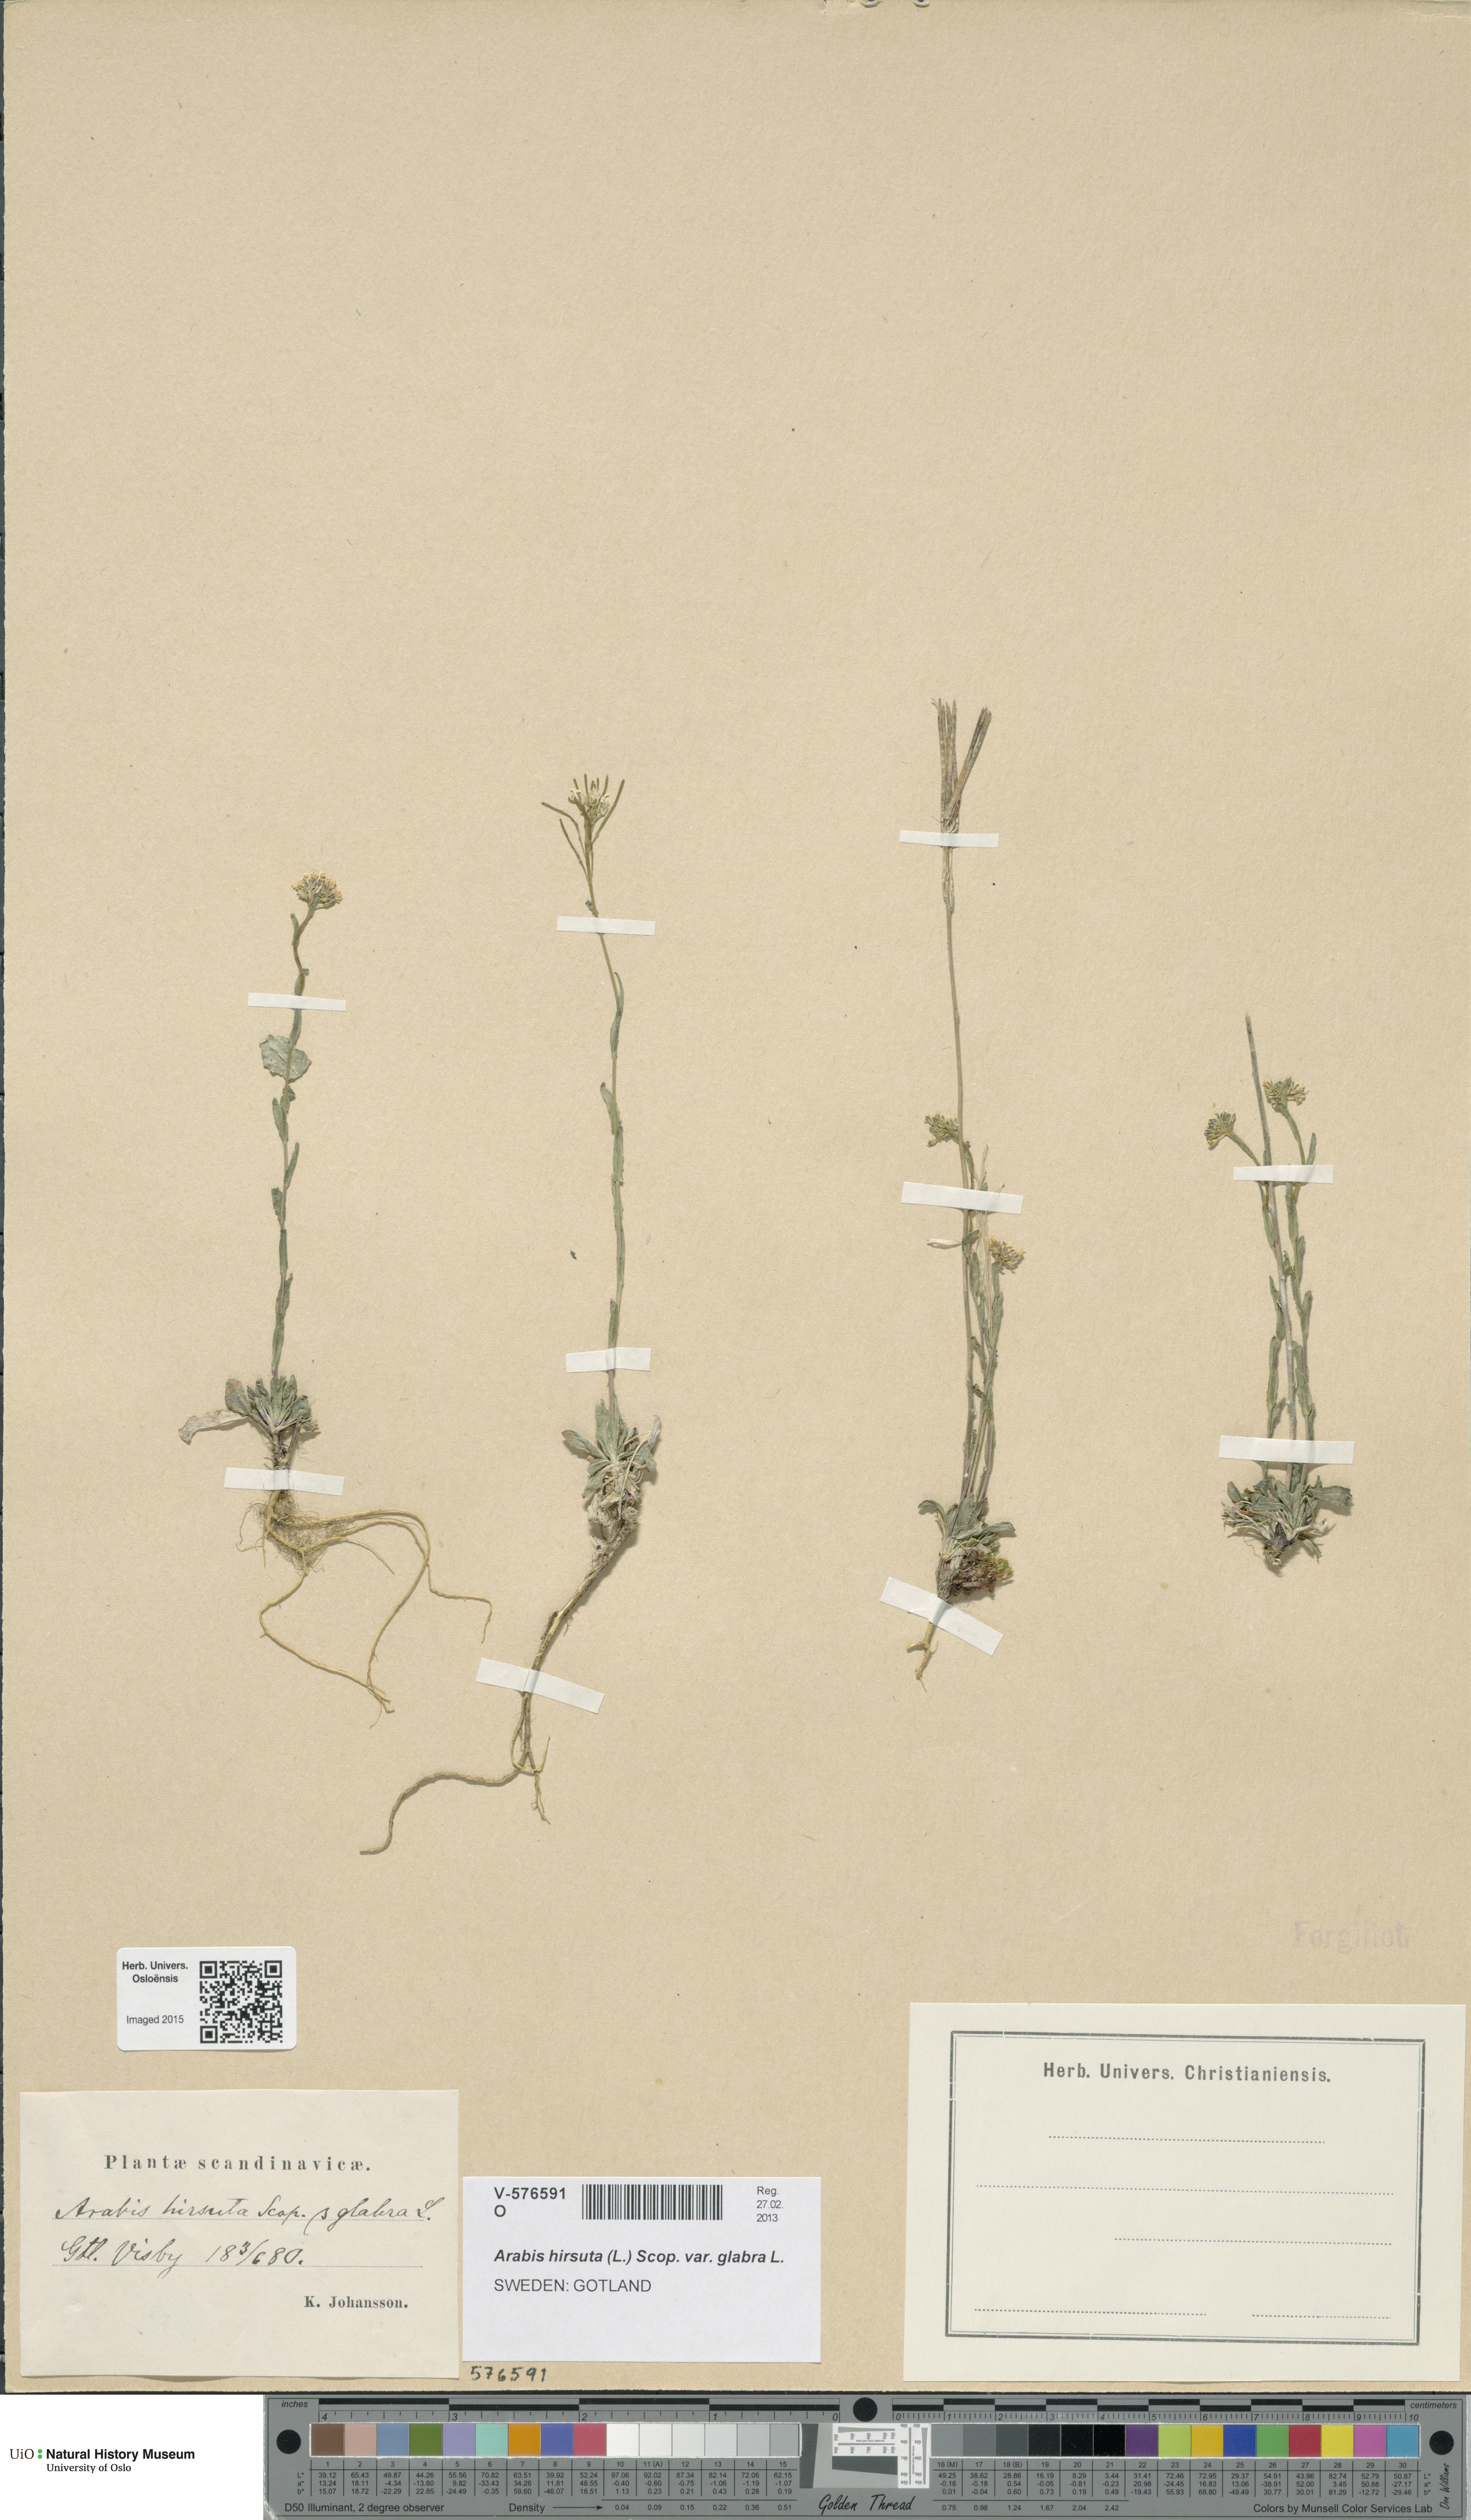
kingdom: Plantae
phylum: Tracheophyta
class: Magnoliopsida
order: Brassicales
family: Brassicaceae
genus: Arabis
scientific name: Arabis hirsuta
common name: Hairy rock-cress
